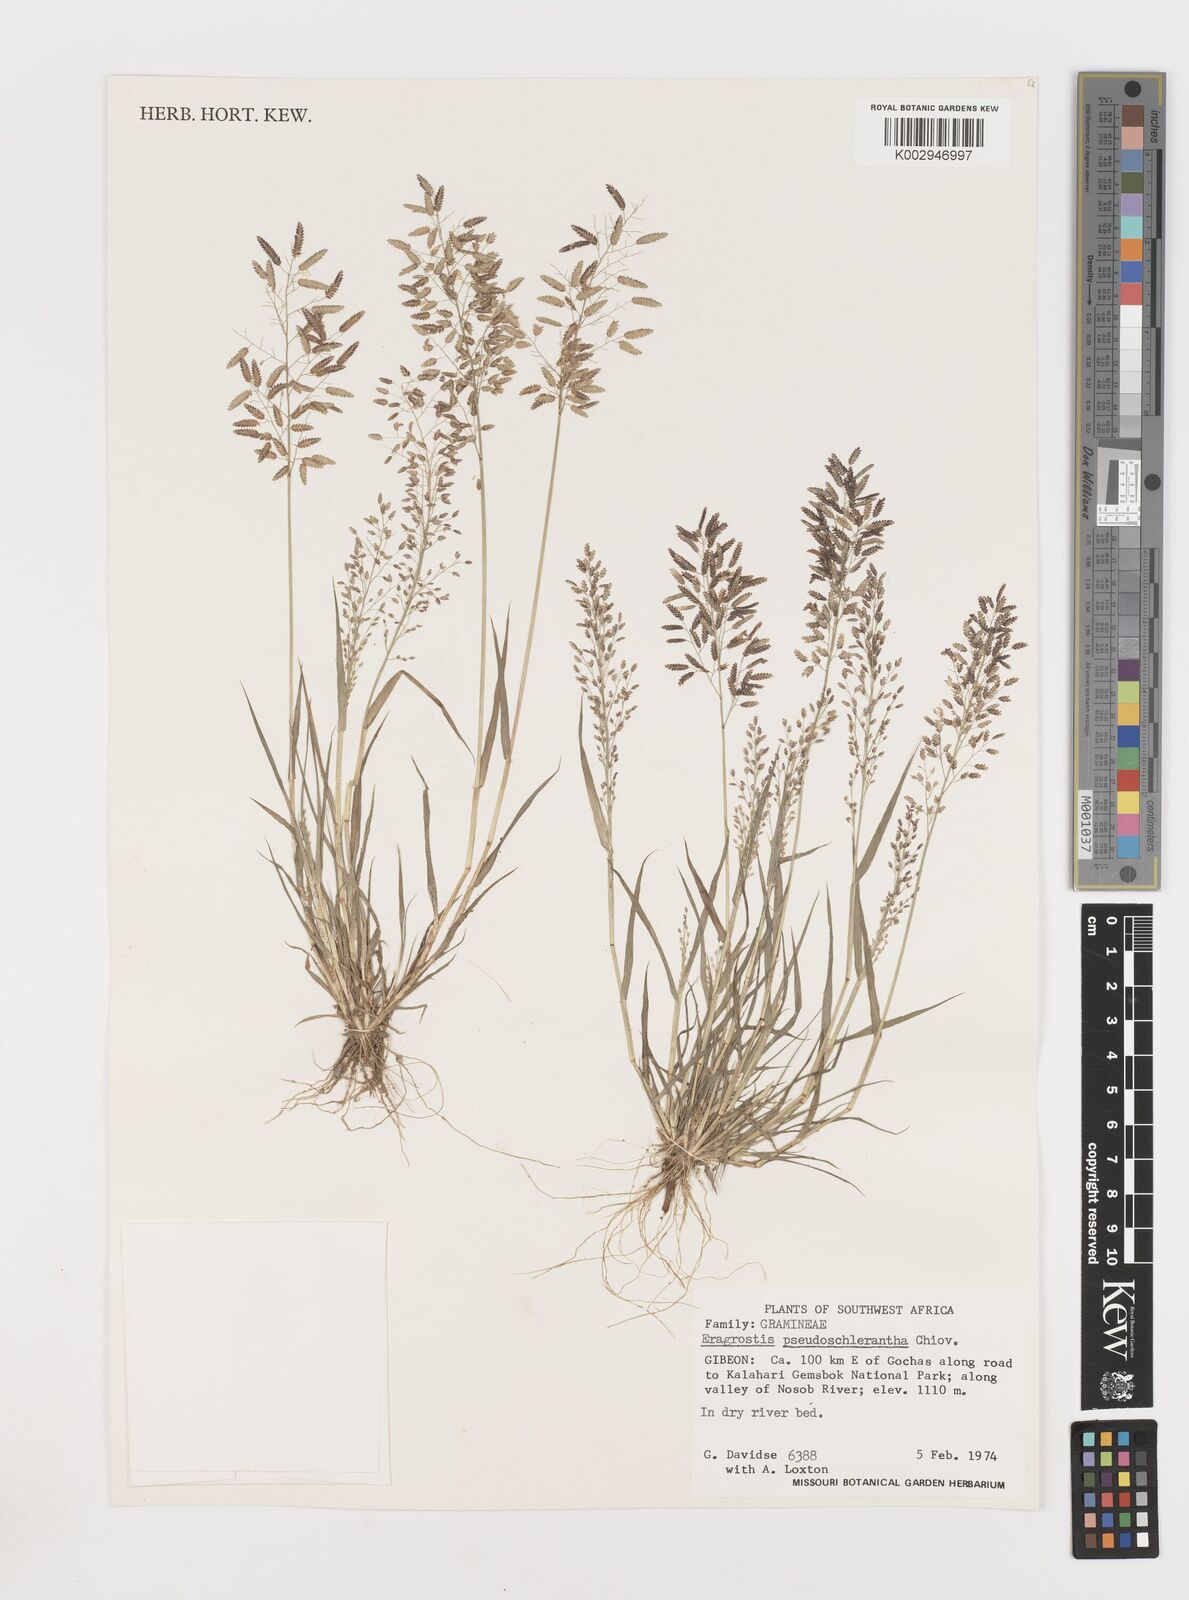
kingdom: Plantae
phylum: Tracheophyta
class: Liliopsida
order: Poales
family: Poaceae
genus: Eragrostis
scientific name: Eragrostis patentipilosa
